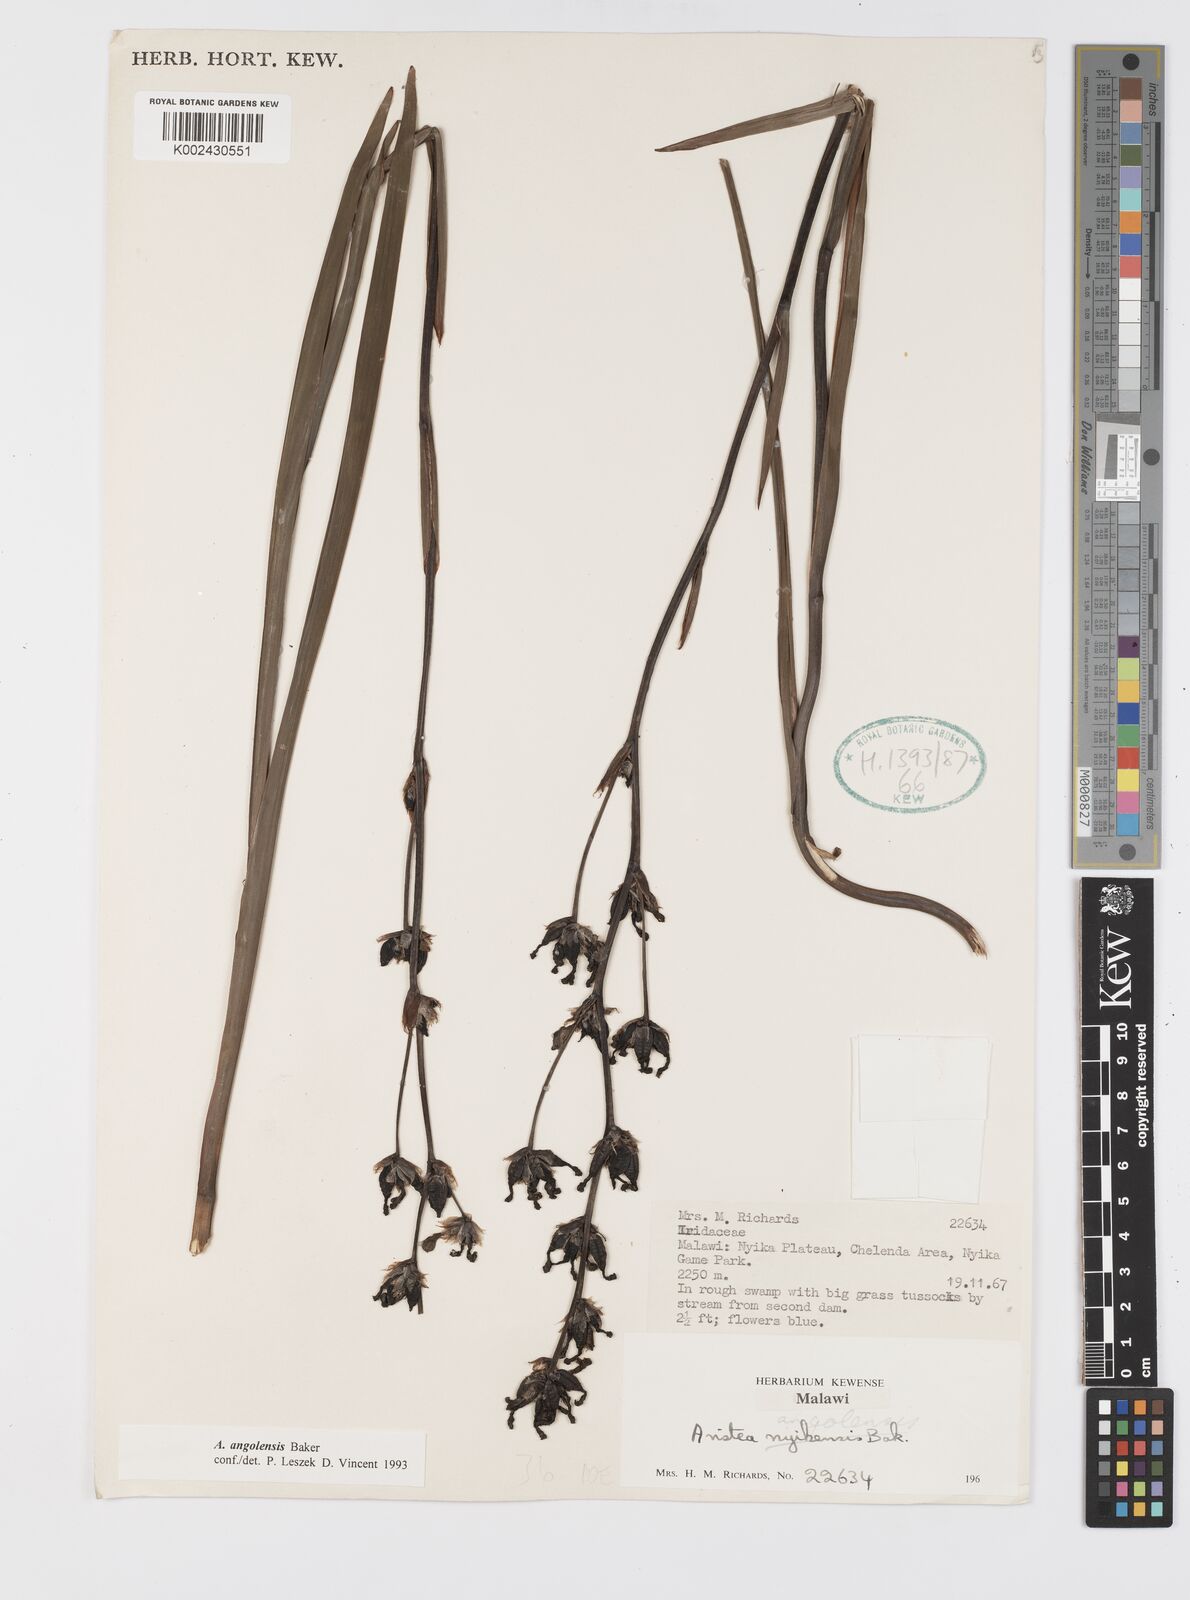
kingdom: Plantae
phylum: Tracheophyta
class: Liliopsida
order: Asparagales
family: Iridaceae
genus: Aristea
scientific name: Aristea angolensis
